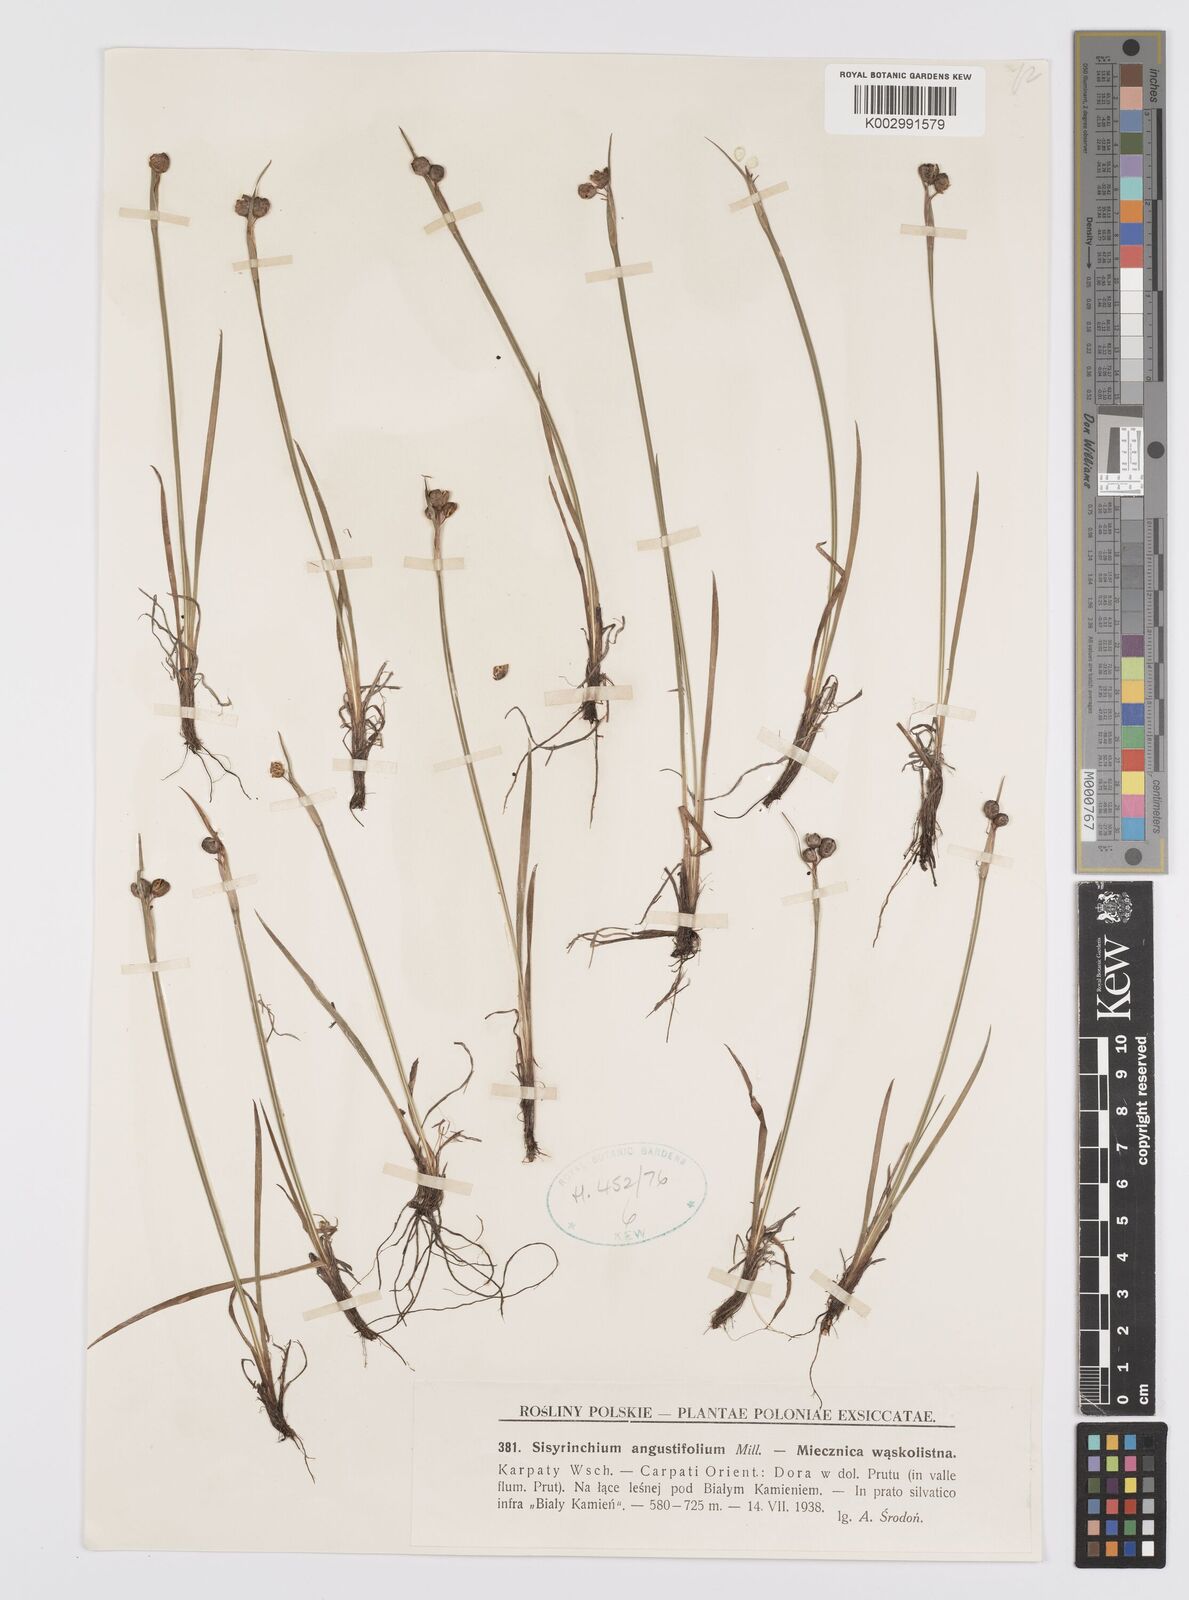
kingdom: Plantae
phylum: Tracheophyta
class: Liliopsida
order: Asparagales
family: Iridaceae
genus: Sisyrinchium
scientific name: Sisyrinchium angustifolium
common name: Narrow-leaf blue-eyed-grass
